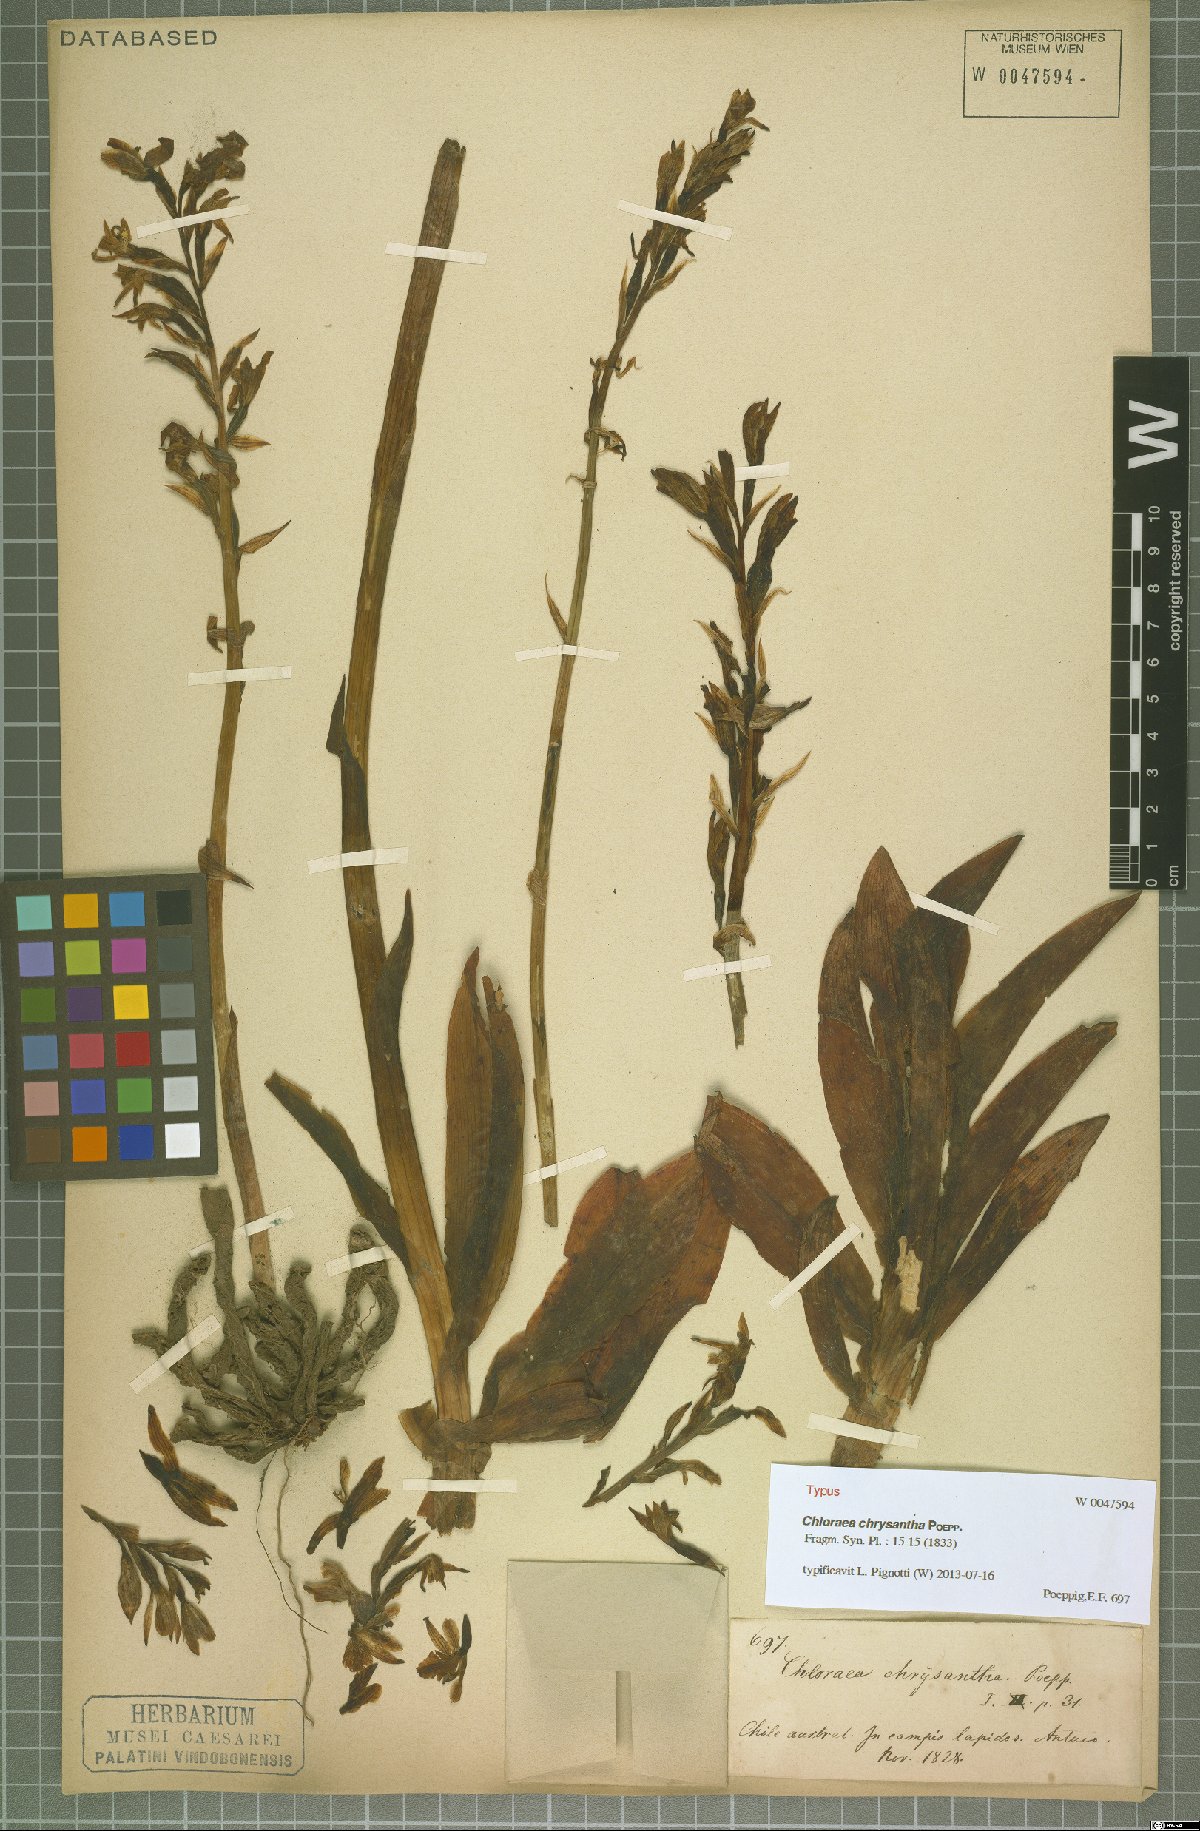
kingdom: Plantae
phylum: Tracheophyta
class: Liliopsida
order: Asparagales
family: Orchidaceae
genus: Chloraea
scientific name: Chloraea chrysantha
